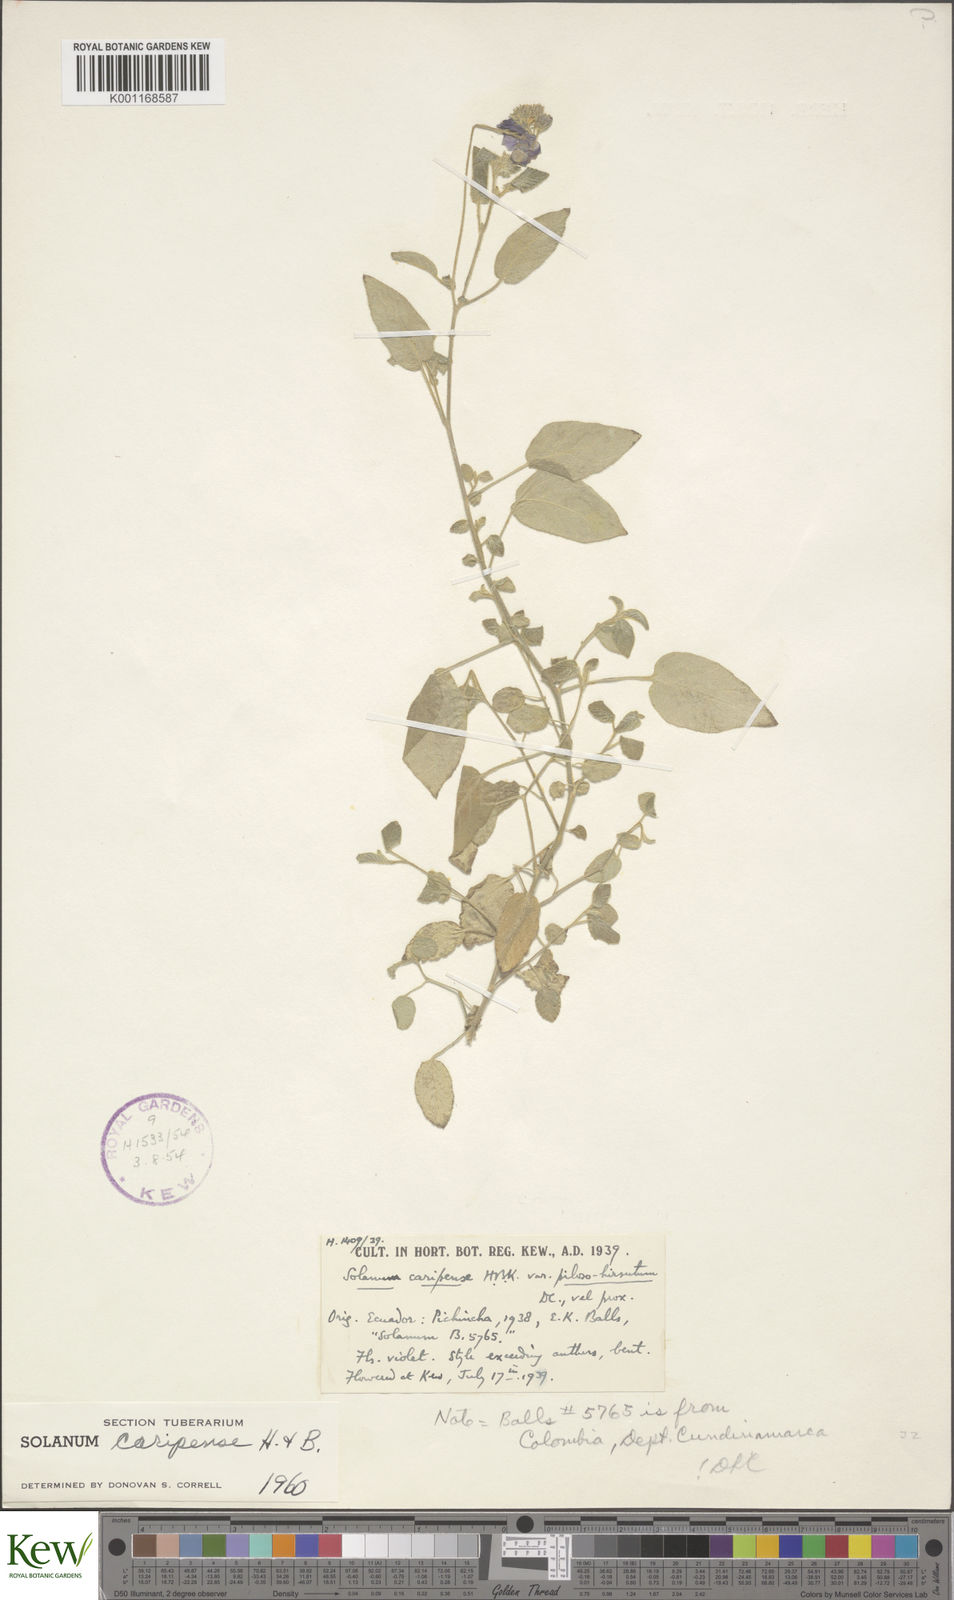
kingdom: Plantae
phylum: Tracheophyta
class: Magnoliopsida
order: Solanales
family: Solanaceae
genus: Solanum
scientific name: Solanum caripense
